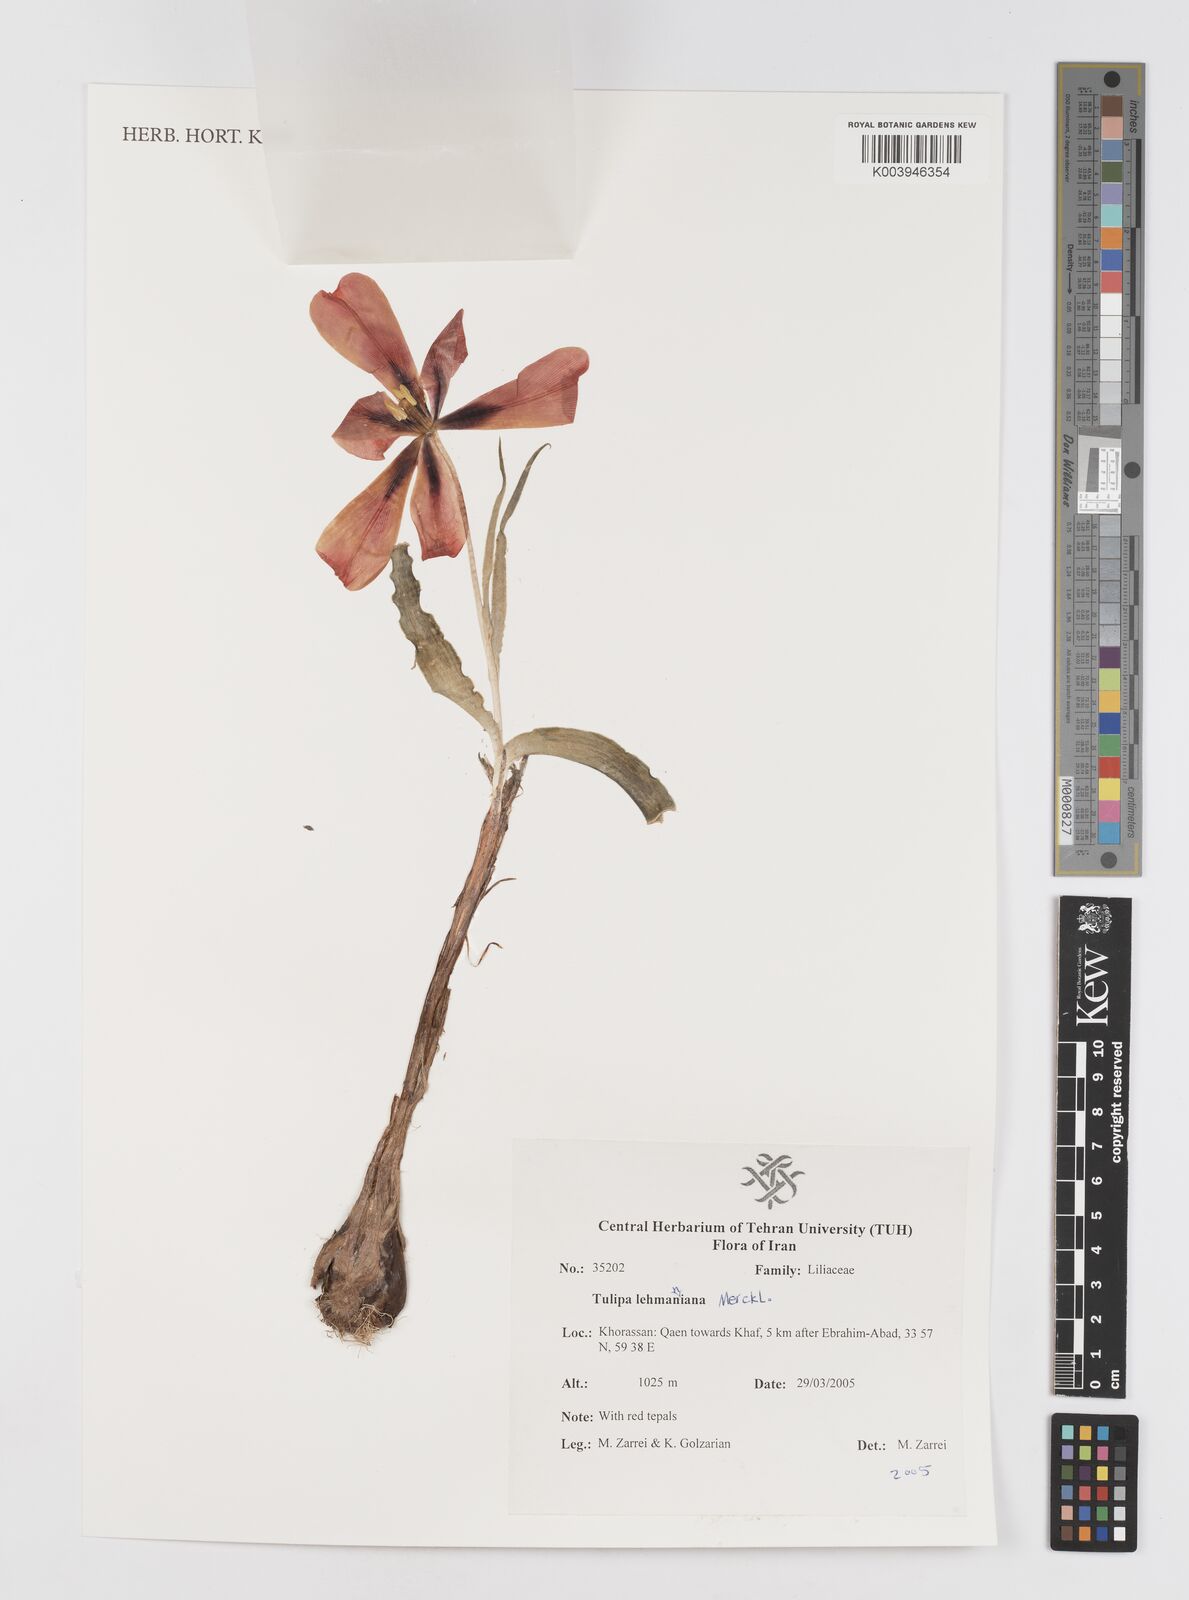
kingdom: Plantae
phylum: Tracheophyta
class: Liliopsida
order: Liliales
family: Liliaceae
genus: Tulipa
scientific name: Tulipa lehmanniana
